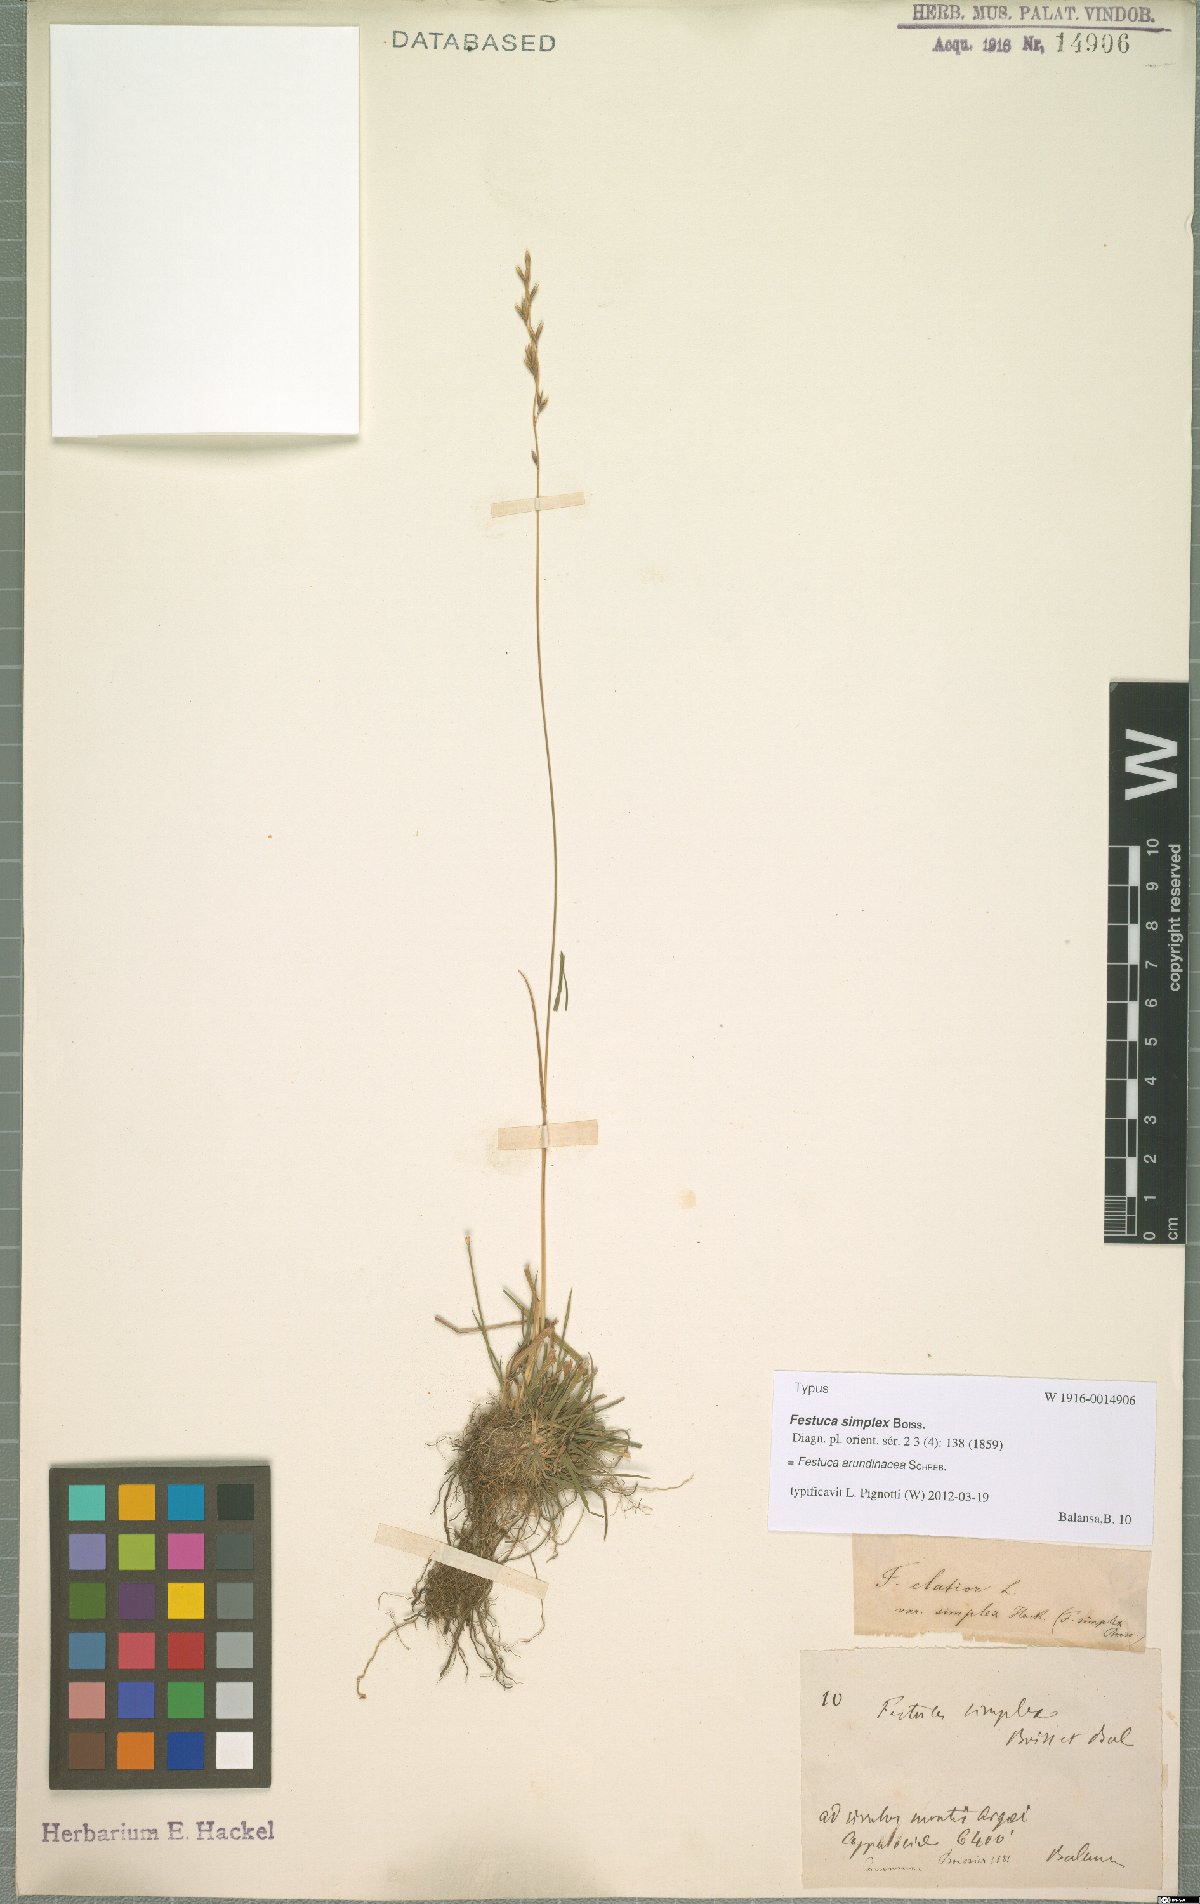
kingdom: Plantae
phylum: Tracheophyta
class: Liliopsida
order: Poales
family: Poaceae
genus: Lolium
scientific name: Lolium arundinaceum
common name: Reed fescue
